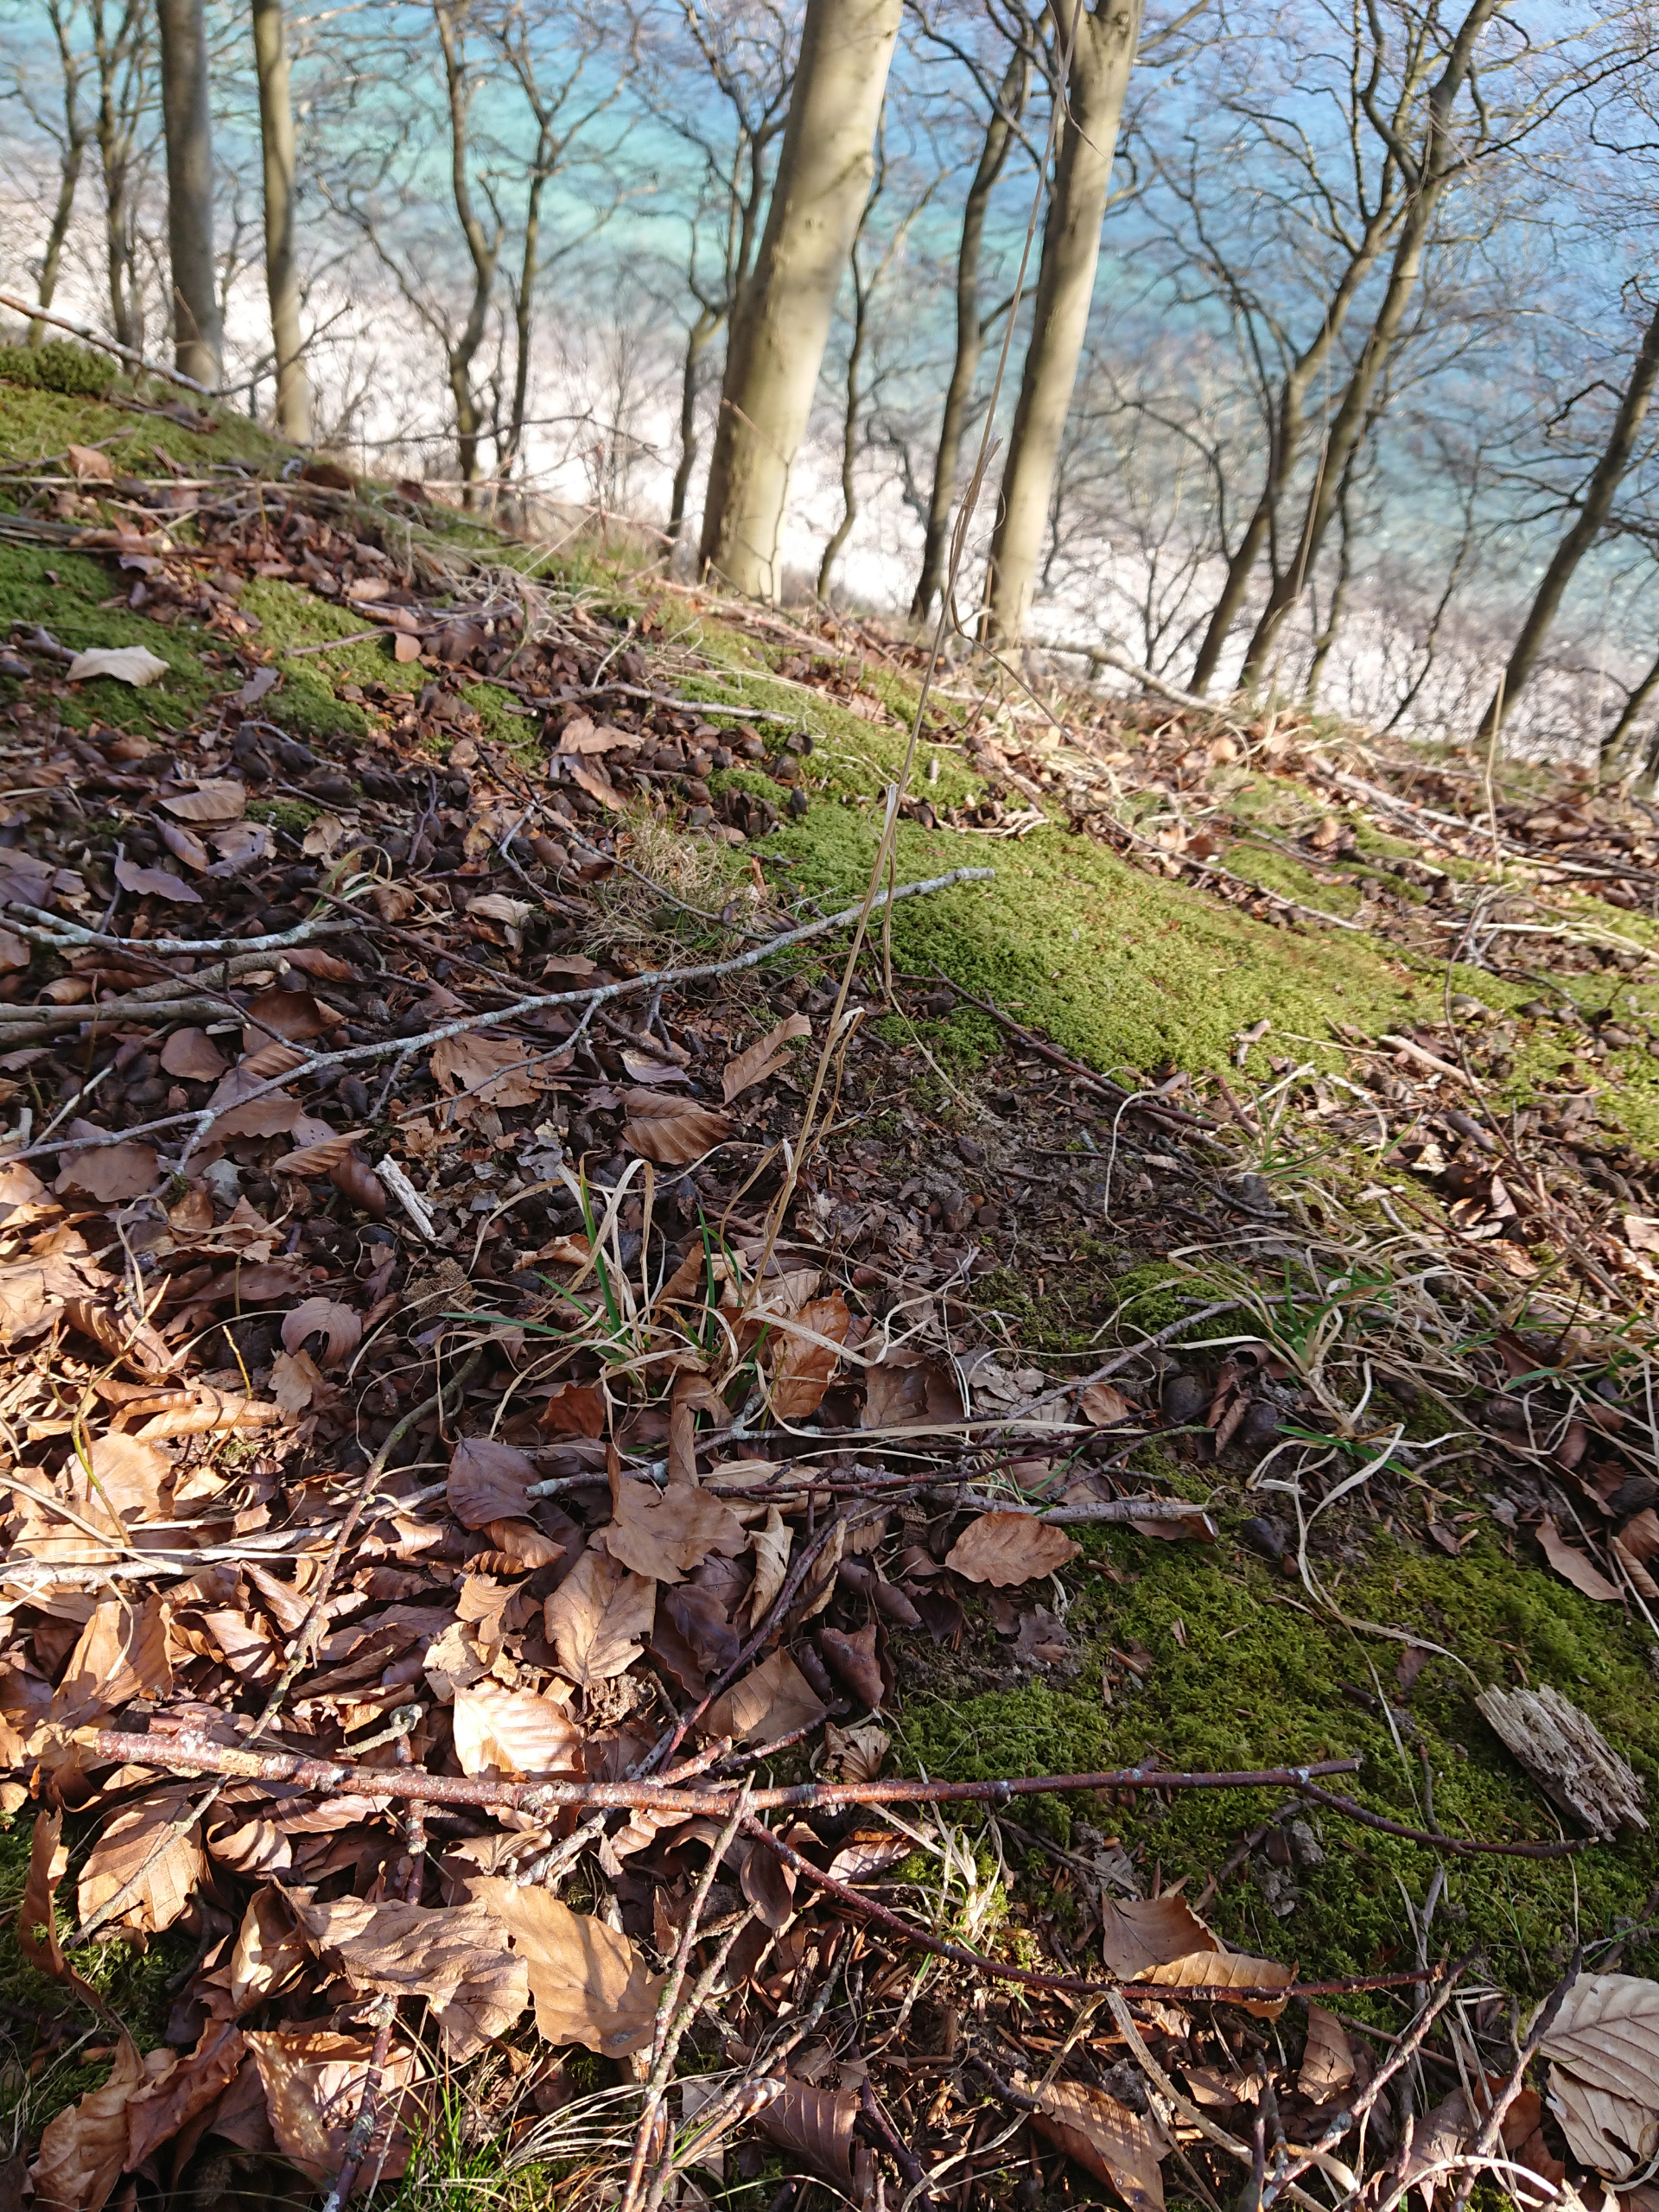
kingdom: Plantae
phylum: Tracheophyta
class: Liliopsida
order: Poales
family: Poaceae
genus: Dactylis
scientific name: Dactylis glomerata
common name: Skov-hundegræs
